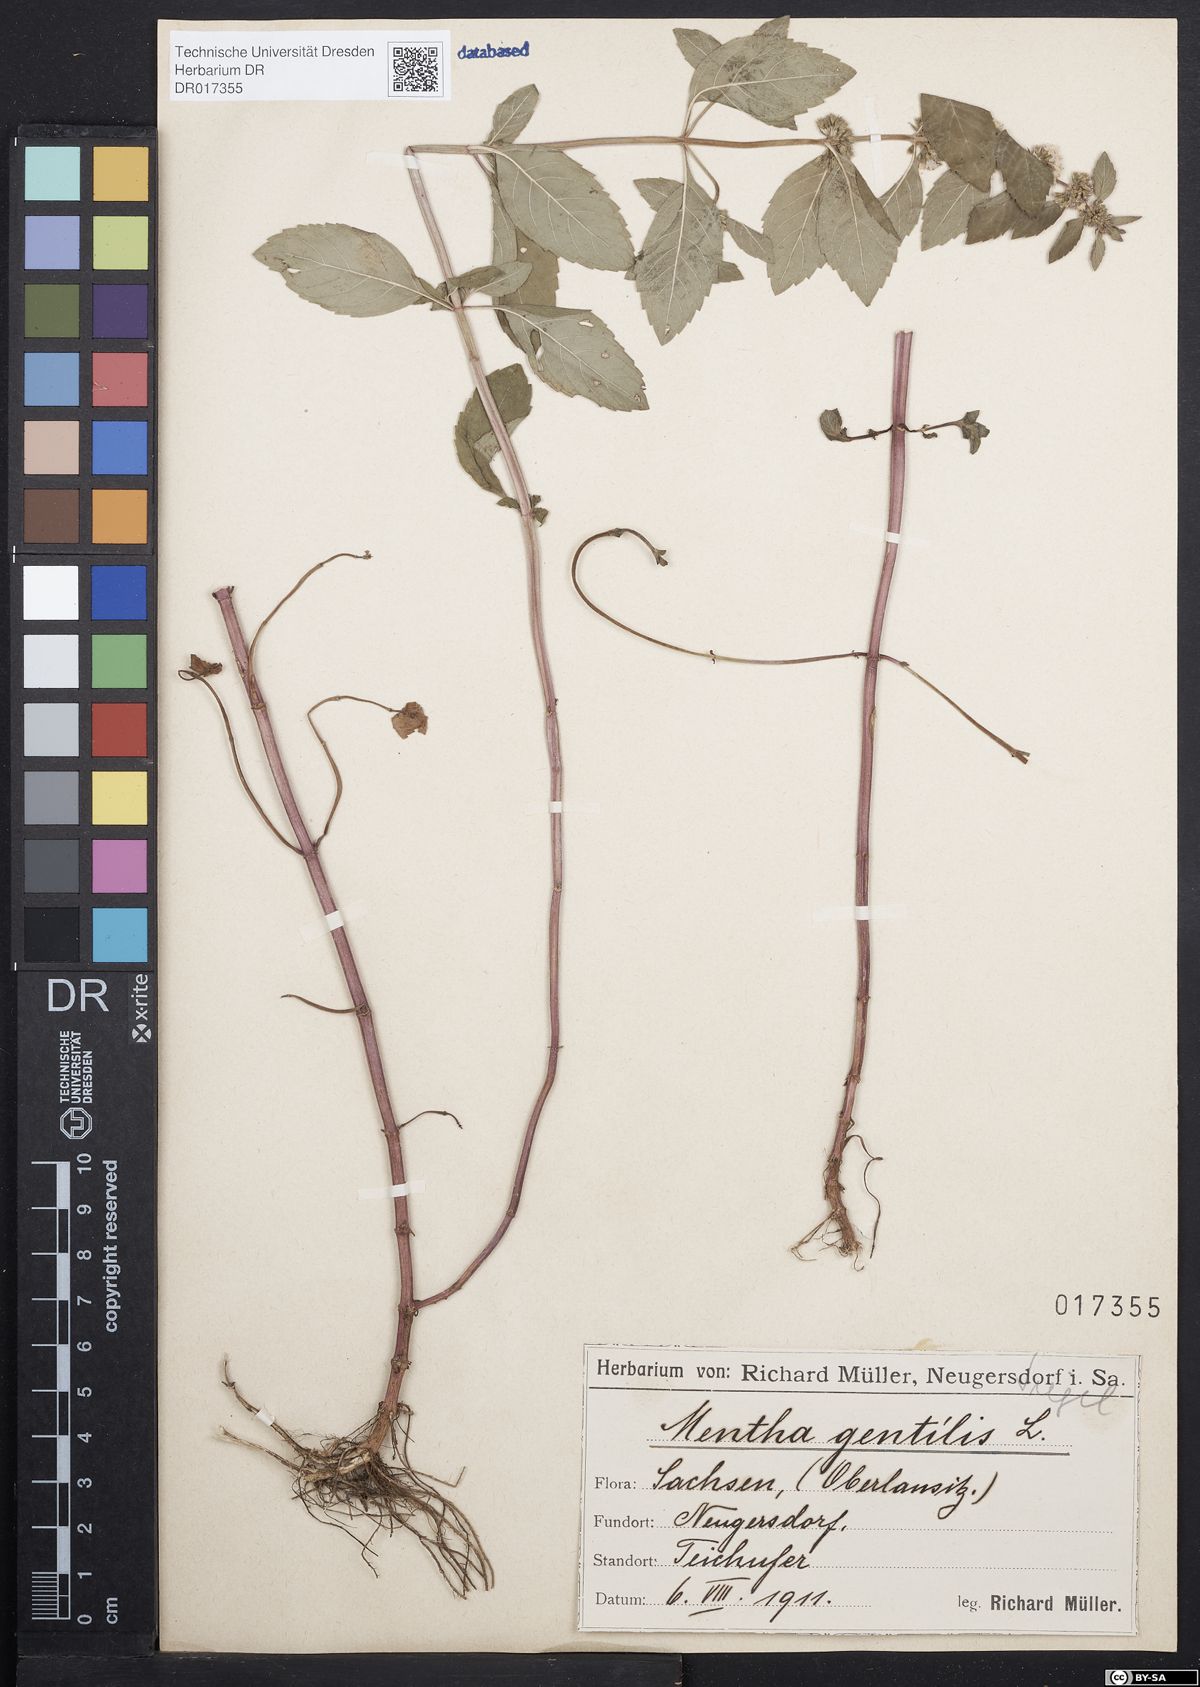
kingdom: Plantae
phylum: Tracheophyta
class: Magnoliopsida
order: Lamiales
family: Lamiaceae
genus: Mentha
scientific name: Mentha gracilis
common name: Bushy mint
